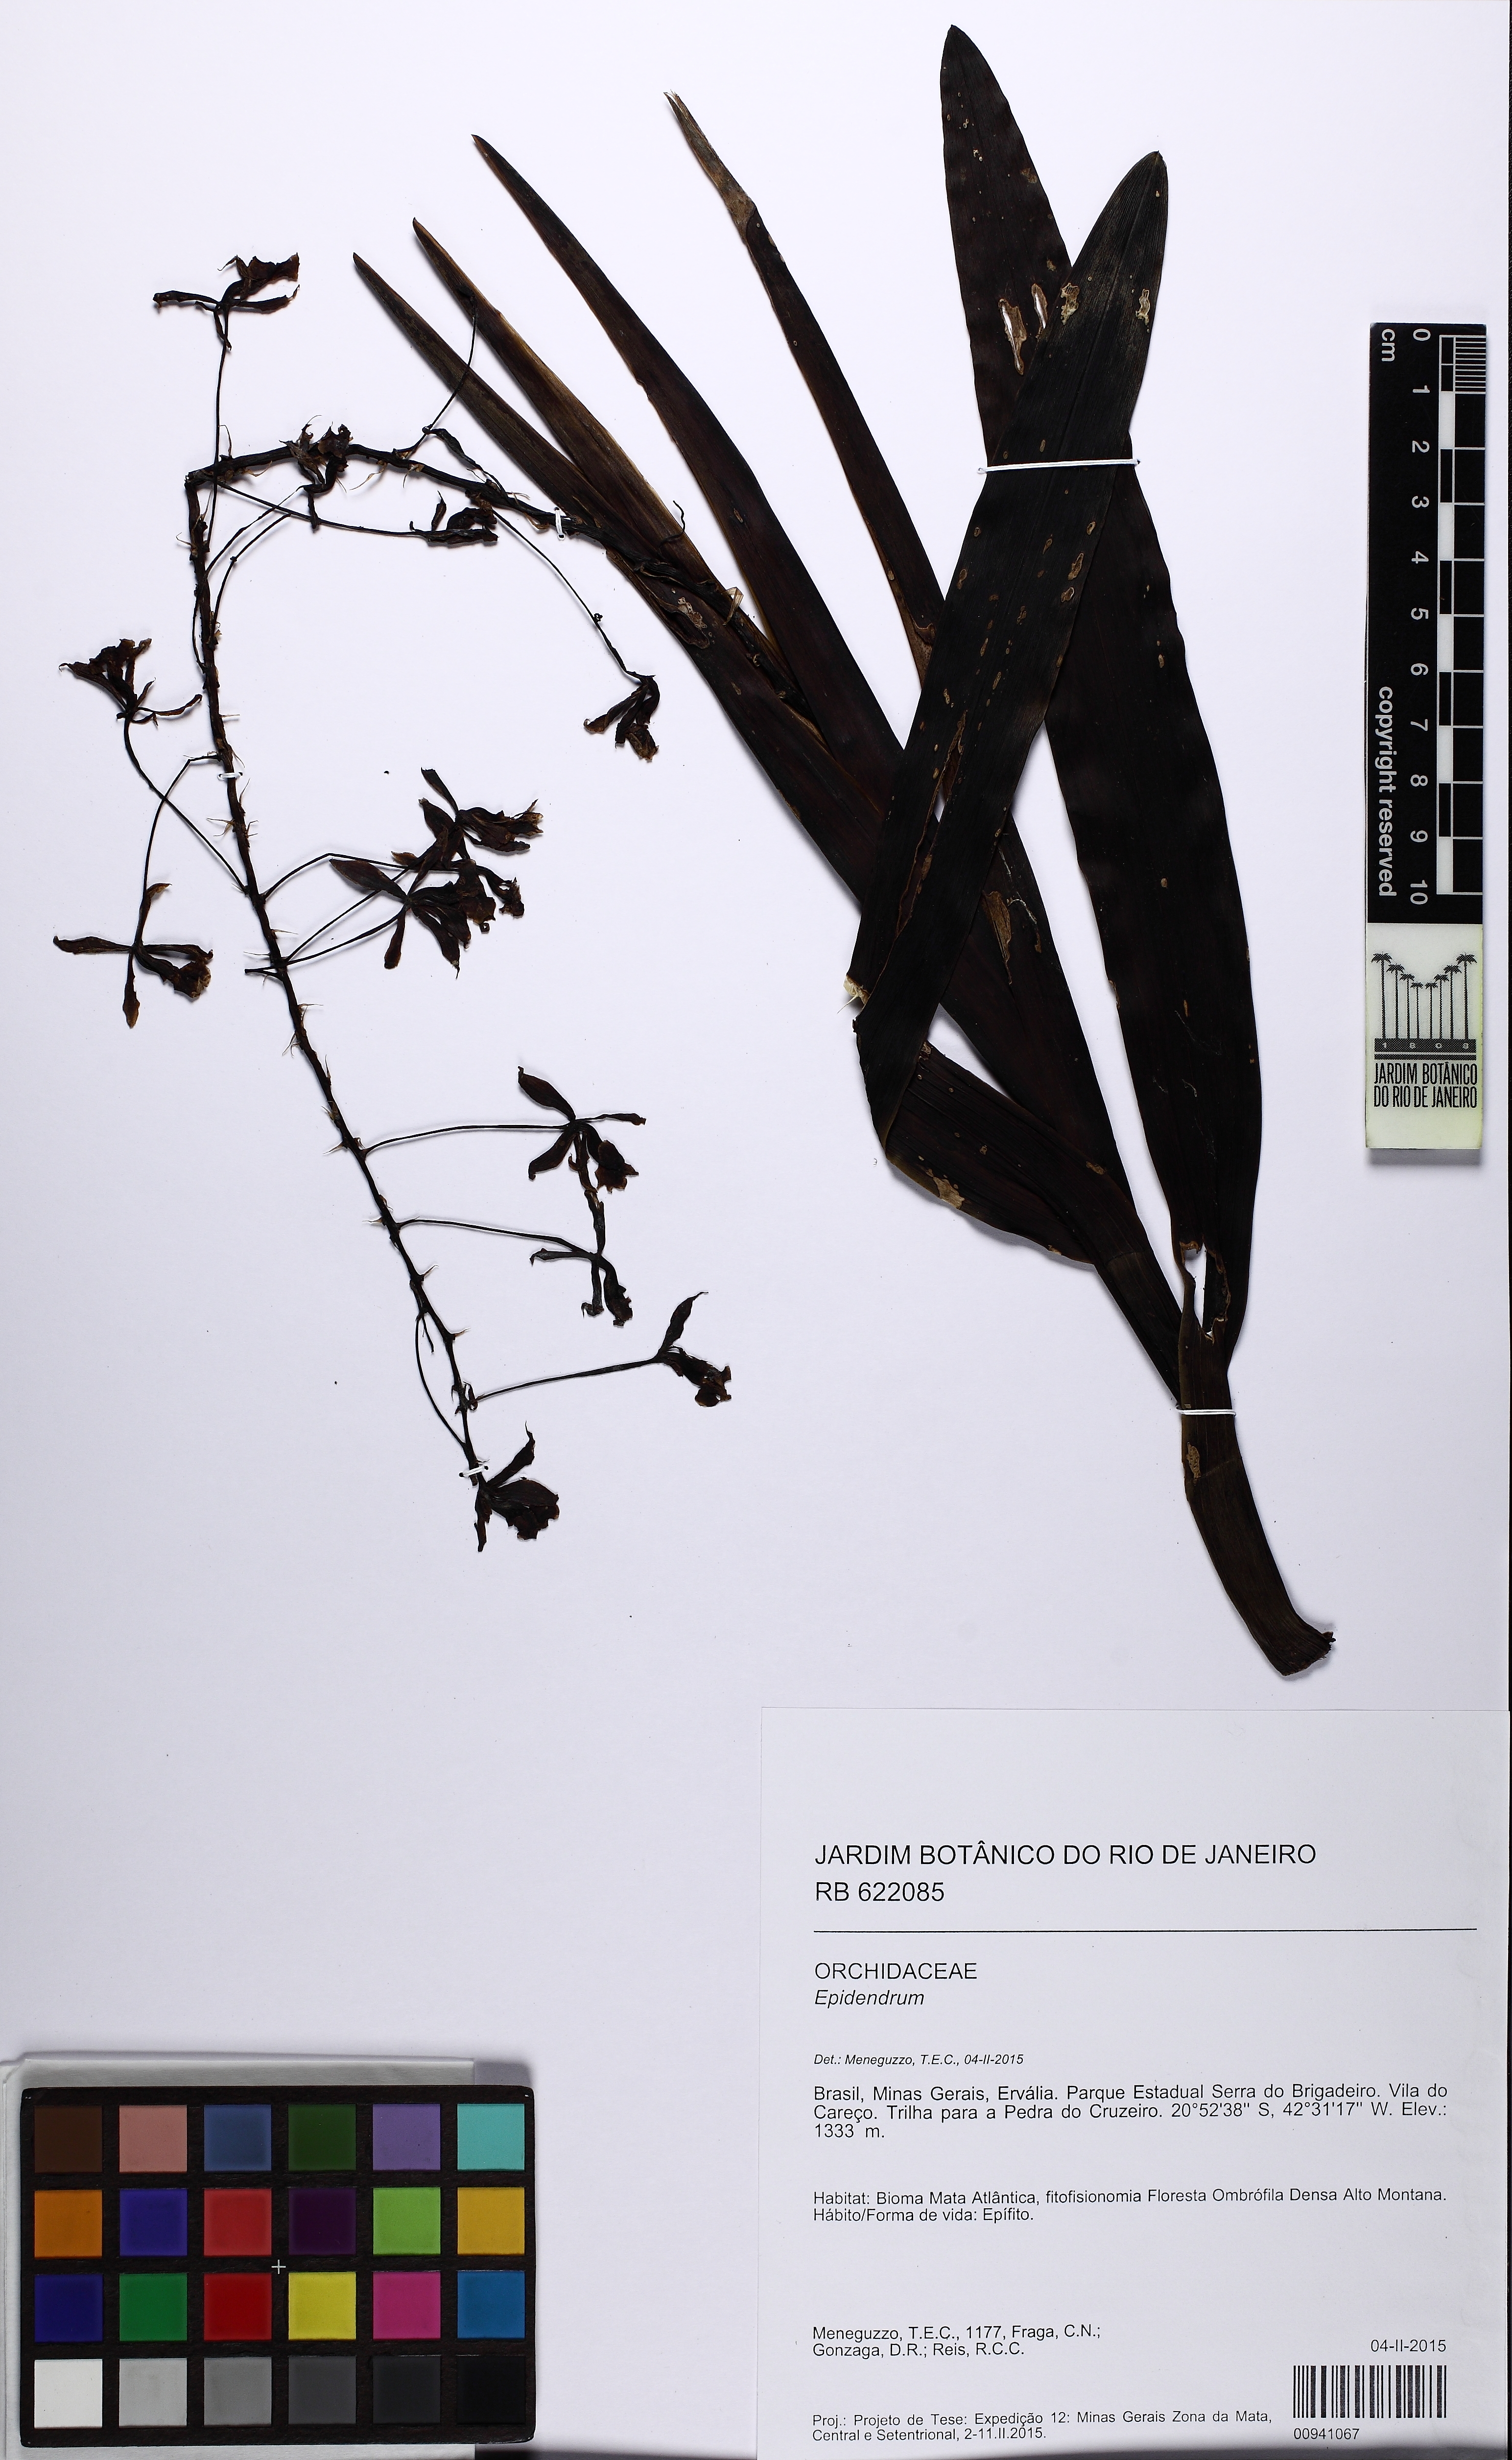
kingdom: Plantae
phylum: Tracheophyta
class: Liliopsida
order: Asparagales
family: Orchidaceae
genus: Epidendrum
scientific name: Epidendrum cooperianum
